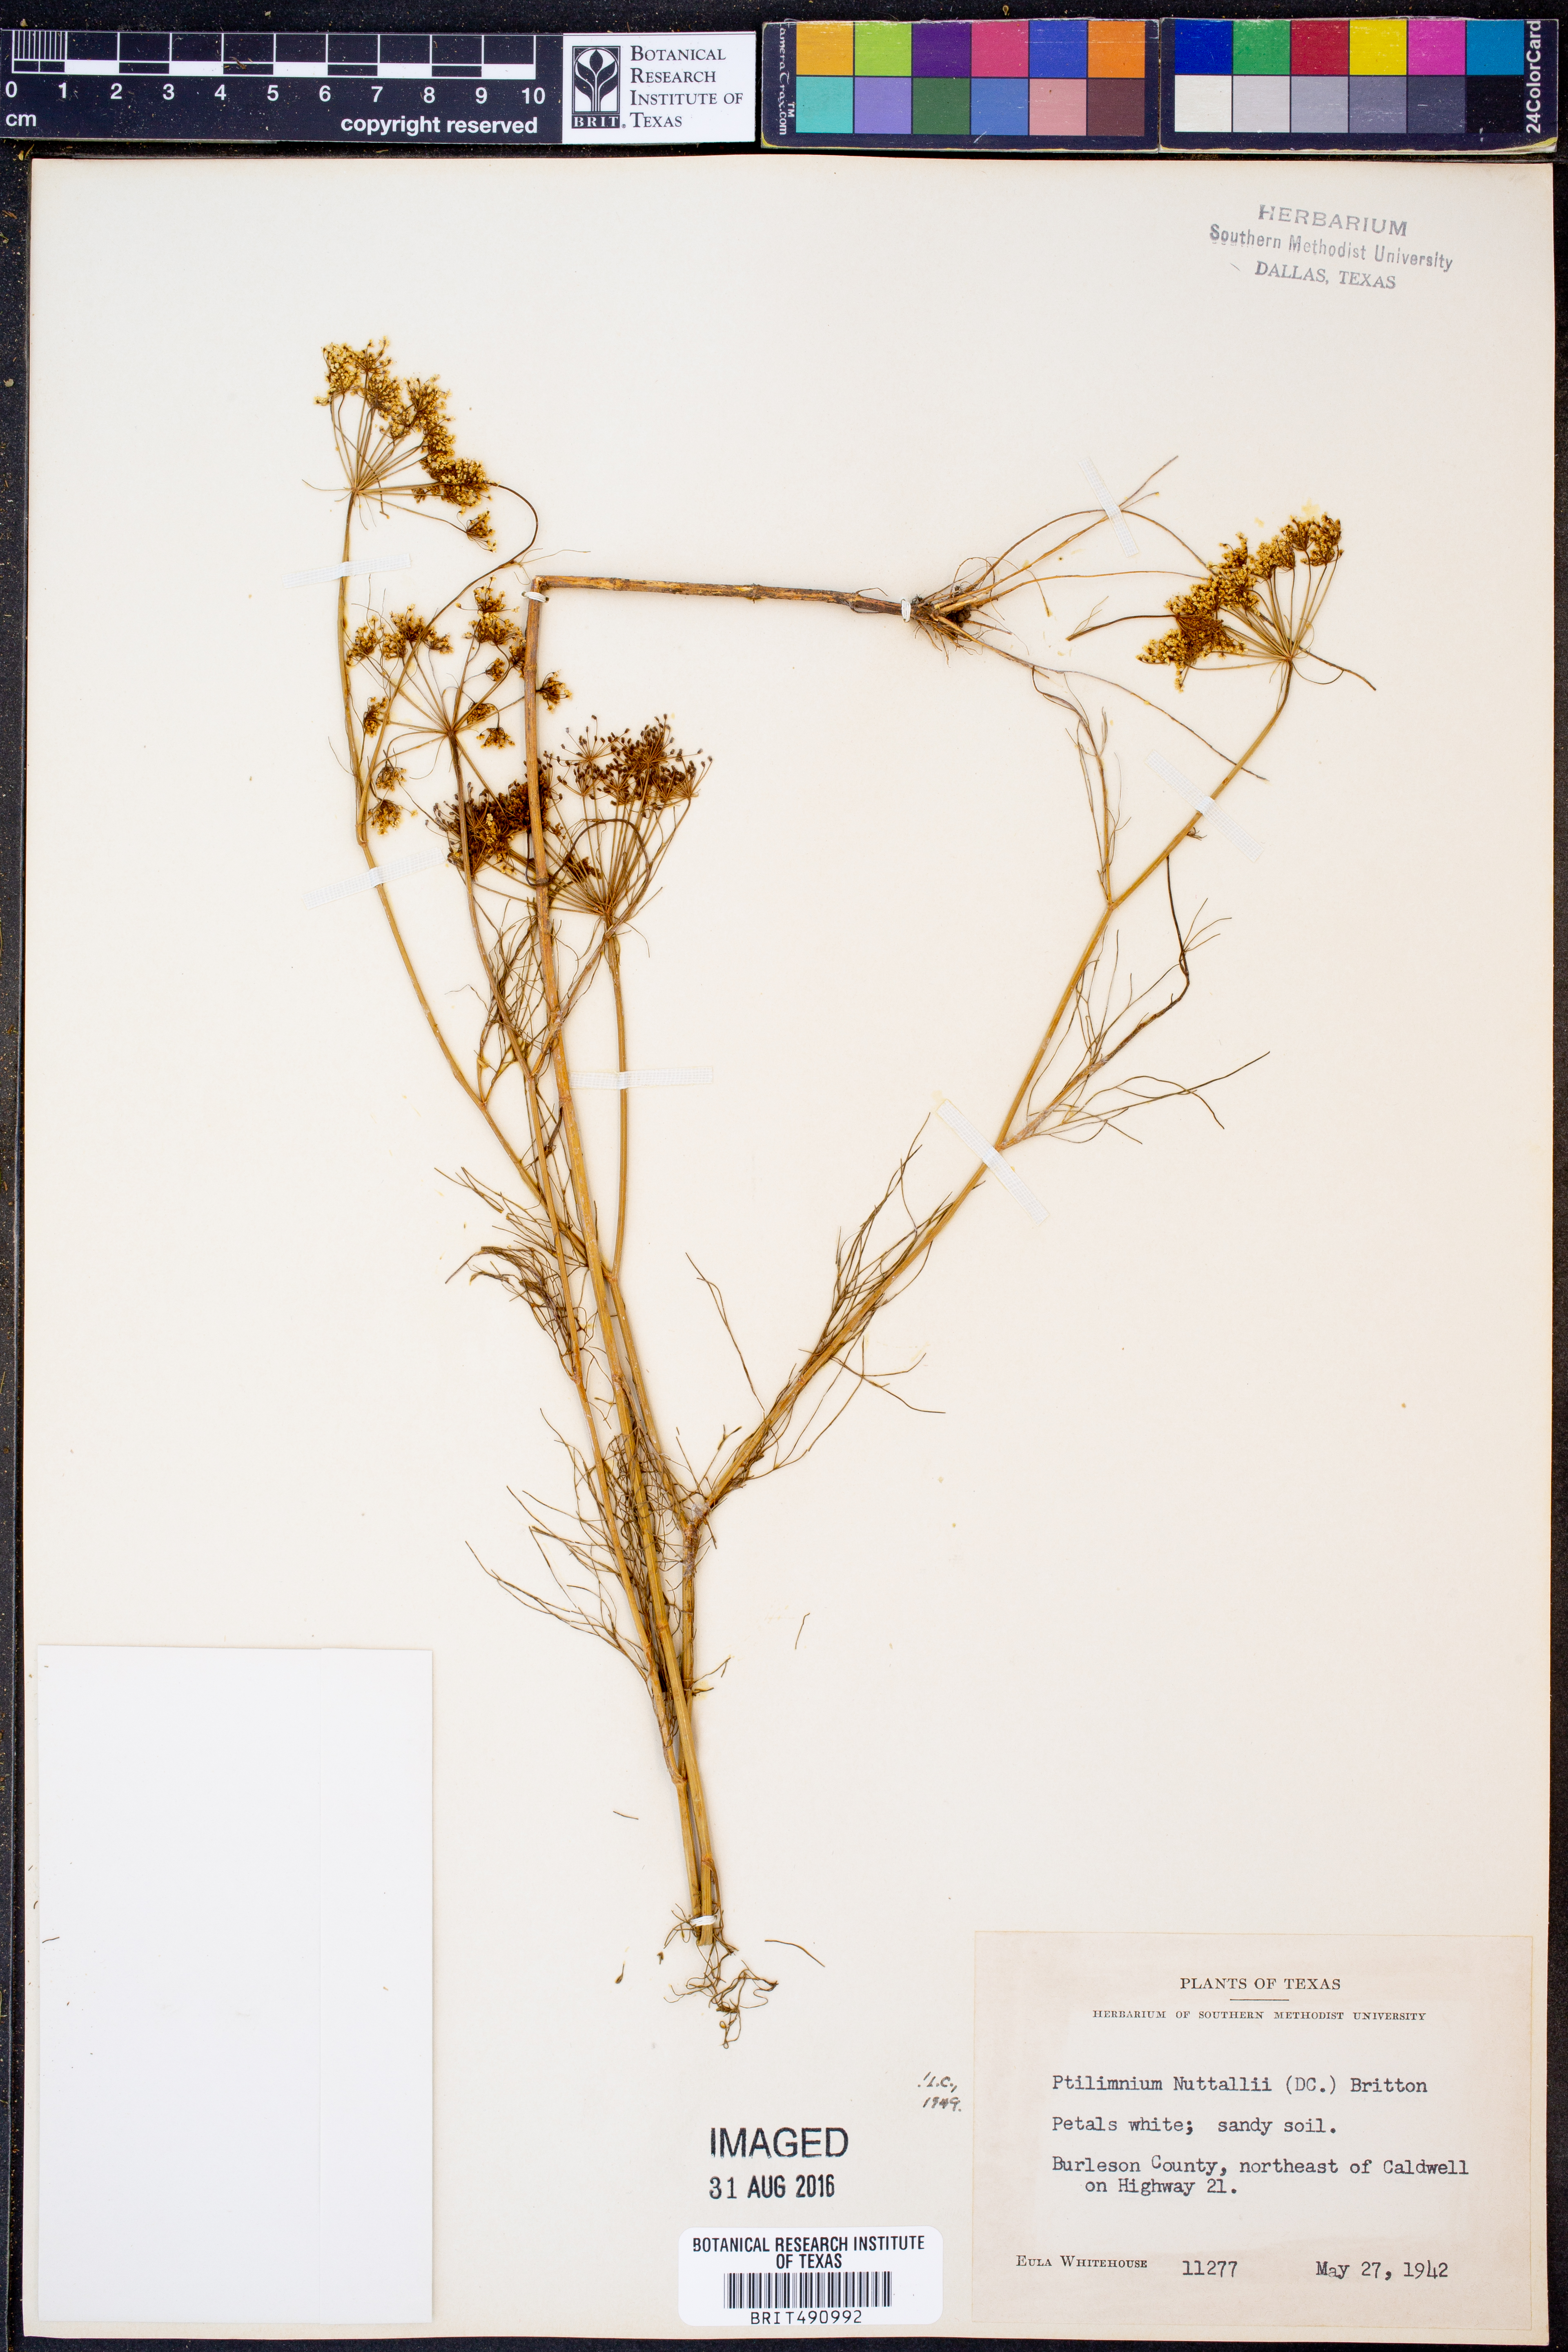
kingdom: Plantae
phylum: Tracheophyta
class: Magnoliopsida
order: Apiales
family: Apiaceae
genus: Ptilimnium
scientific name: Ptilimnium nuttallii
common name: Ozark bishop's-weed
